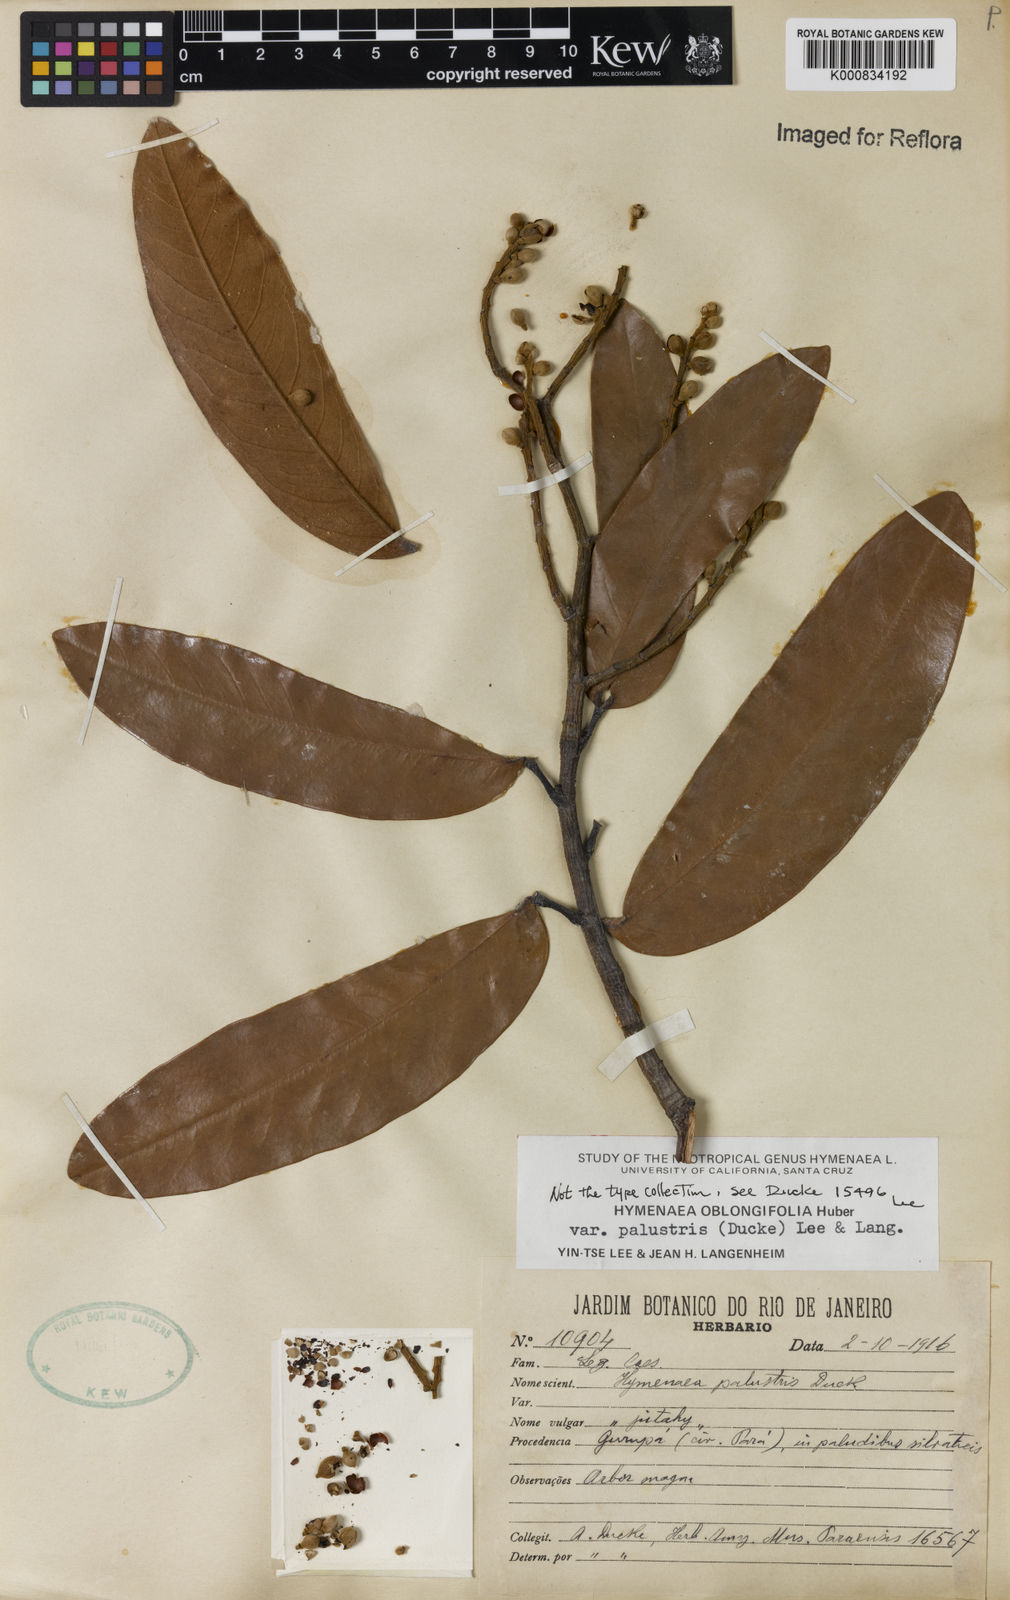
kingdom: Plantae
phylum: Tracheophyta
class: Magnoliopsida
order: Fabales
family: Fabaceae
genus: Hymenaea
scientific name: Hymenaea oblongifolia
